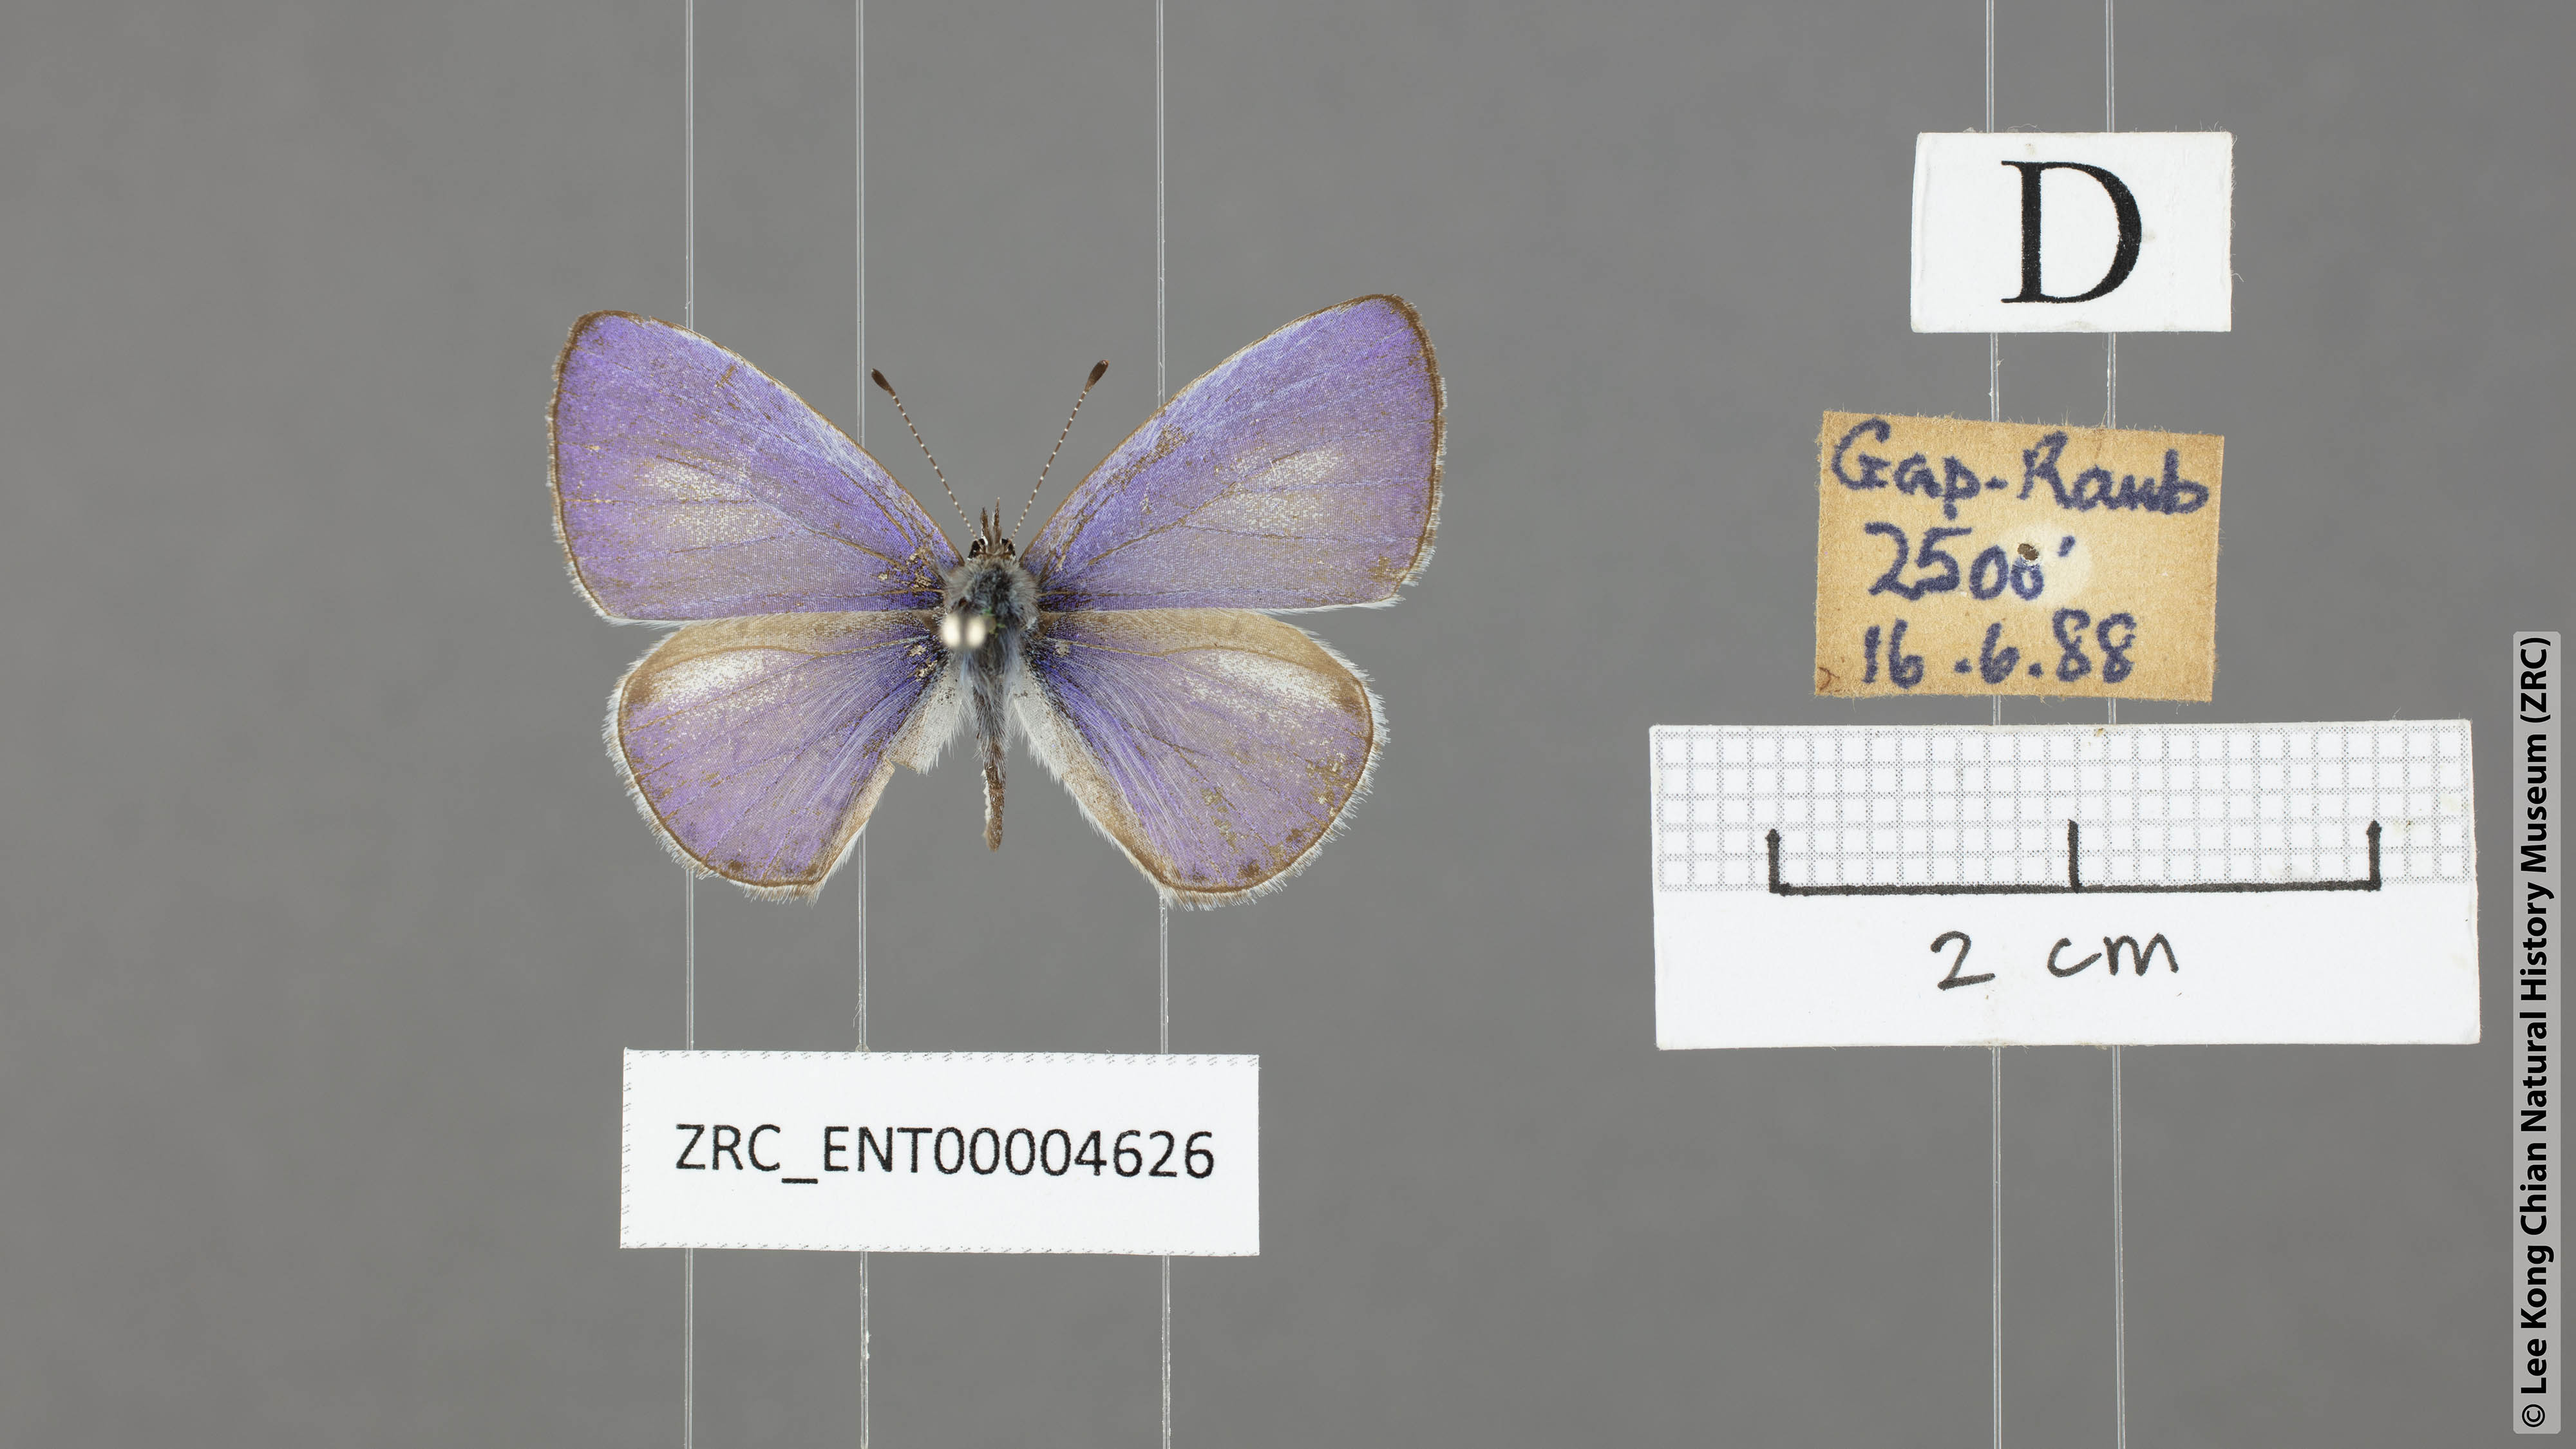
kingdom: Animalia
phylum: Arthropoda
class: Insecta
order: Lepidoptera
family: Lycaenidae
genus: Udara
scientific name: Udara dilectus
